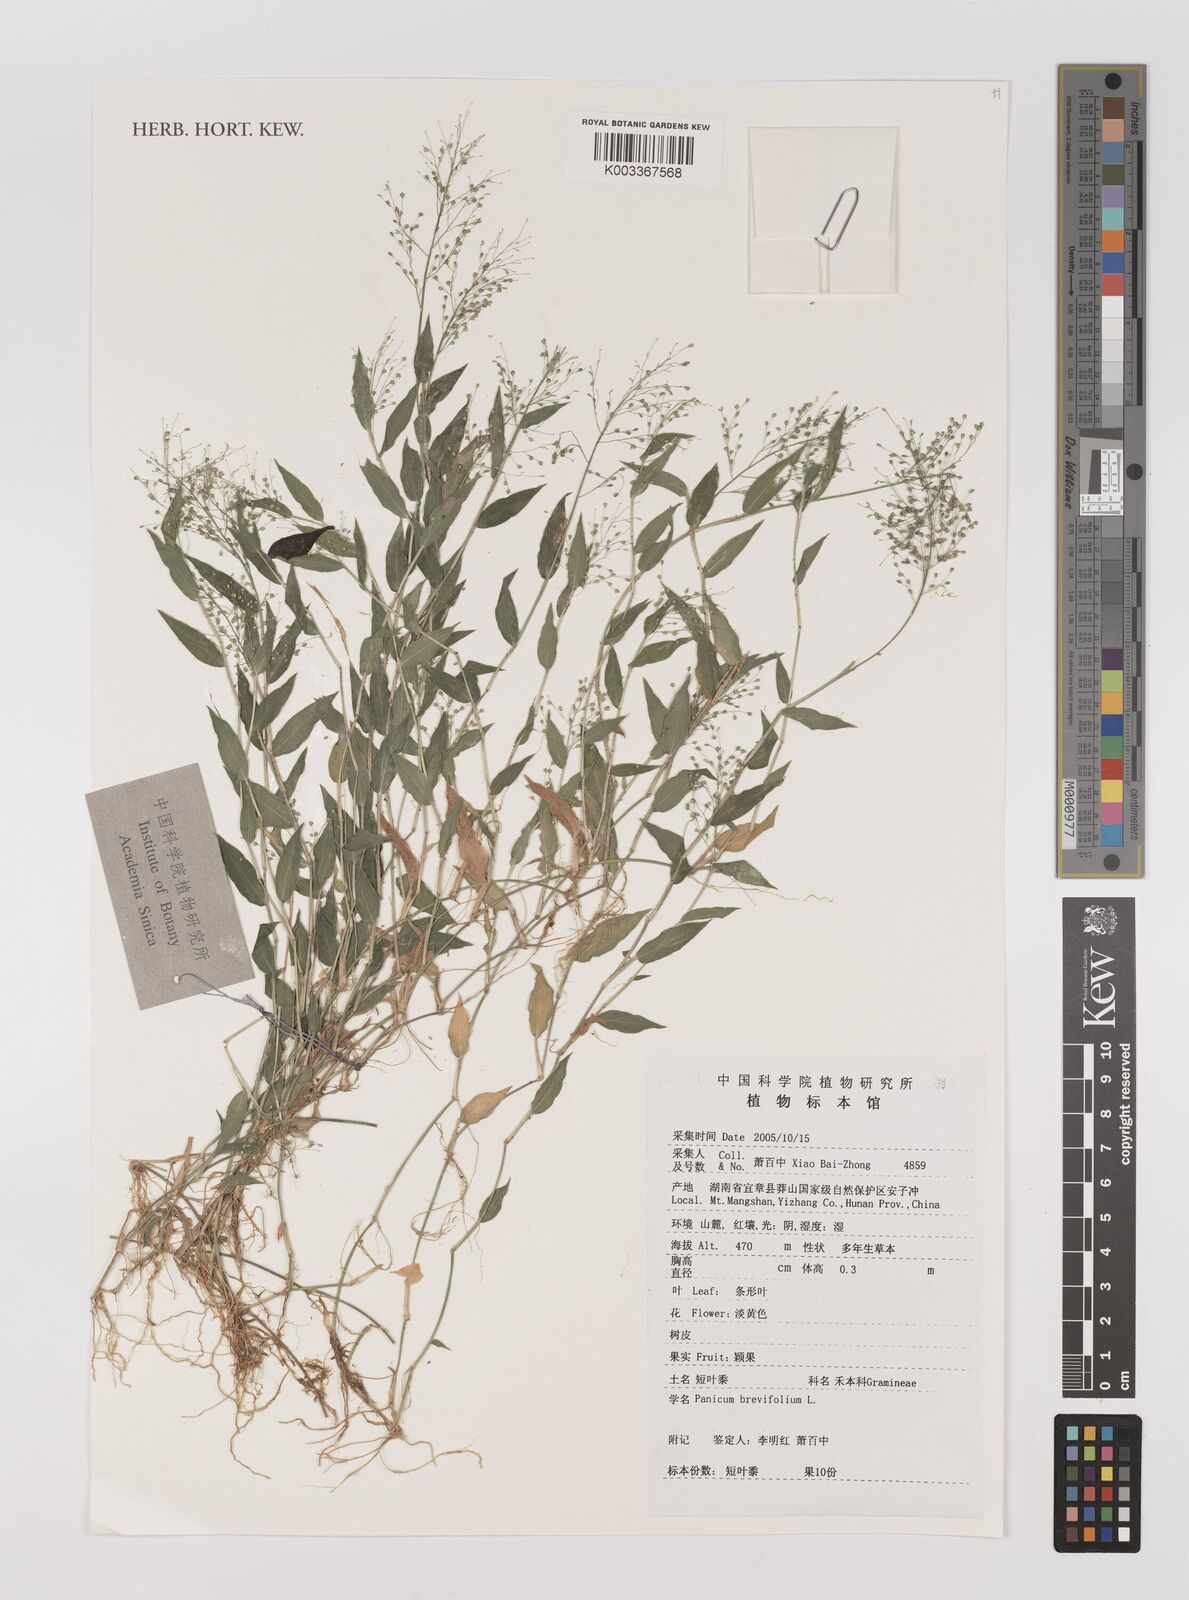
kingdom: Plantae
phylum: Tracheophyta
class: Liliopsida
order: Poales
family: Poaceae
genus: Panicum
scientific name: Panicum brevifolium
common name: Shortleaf panic grass
